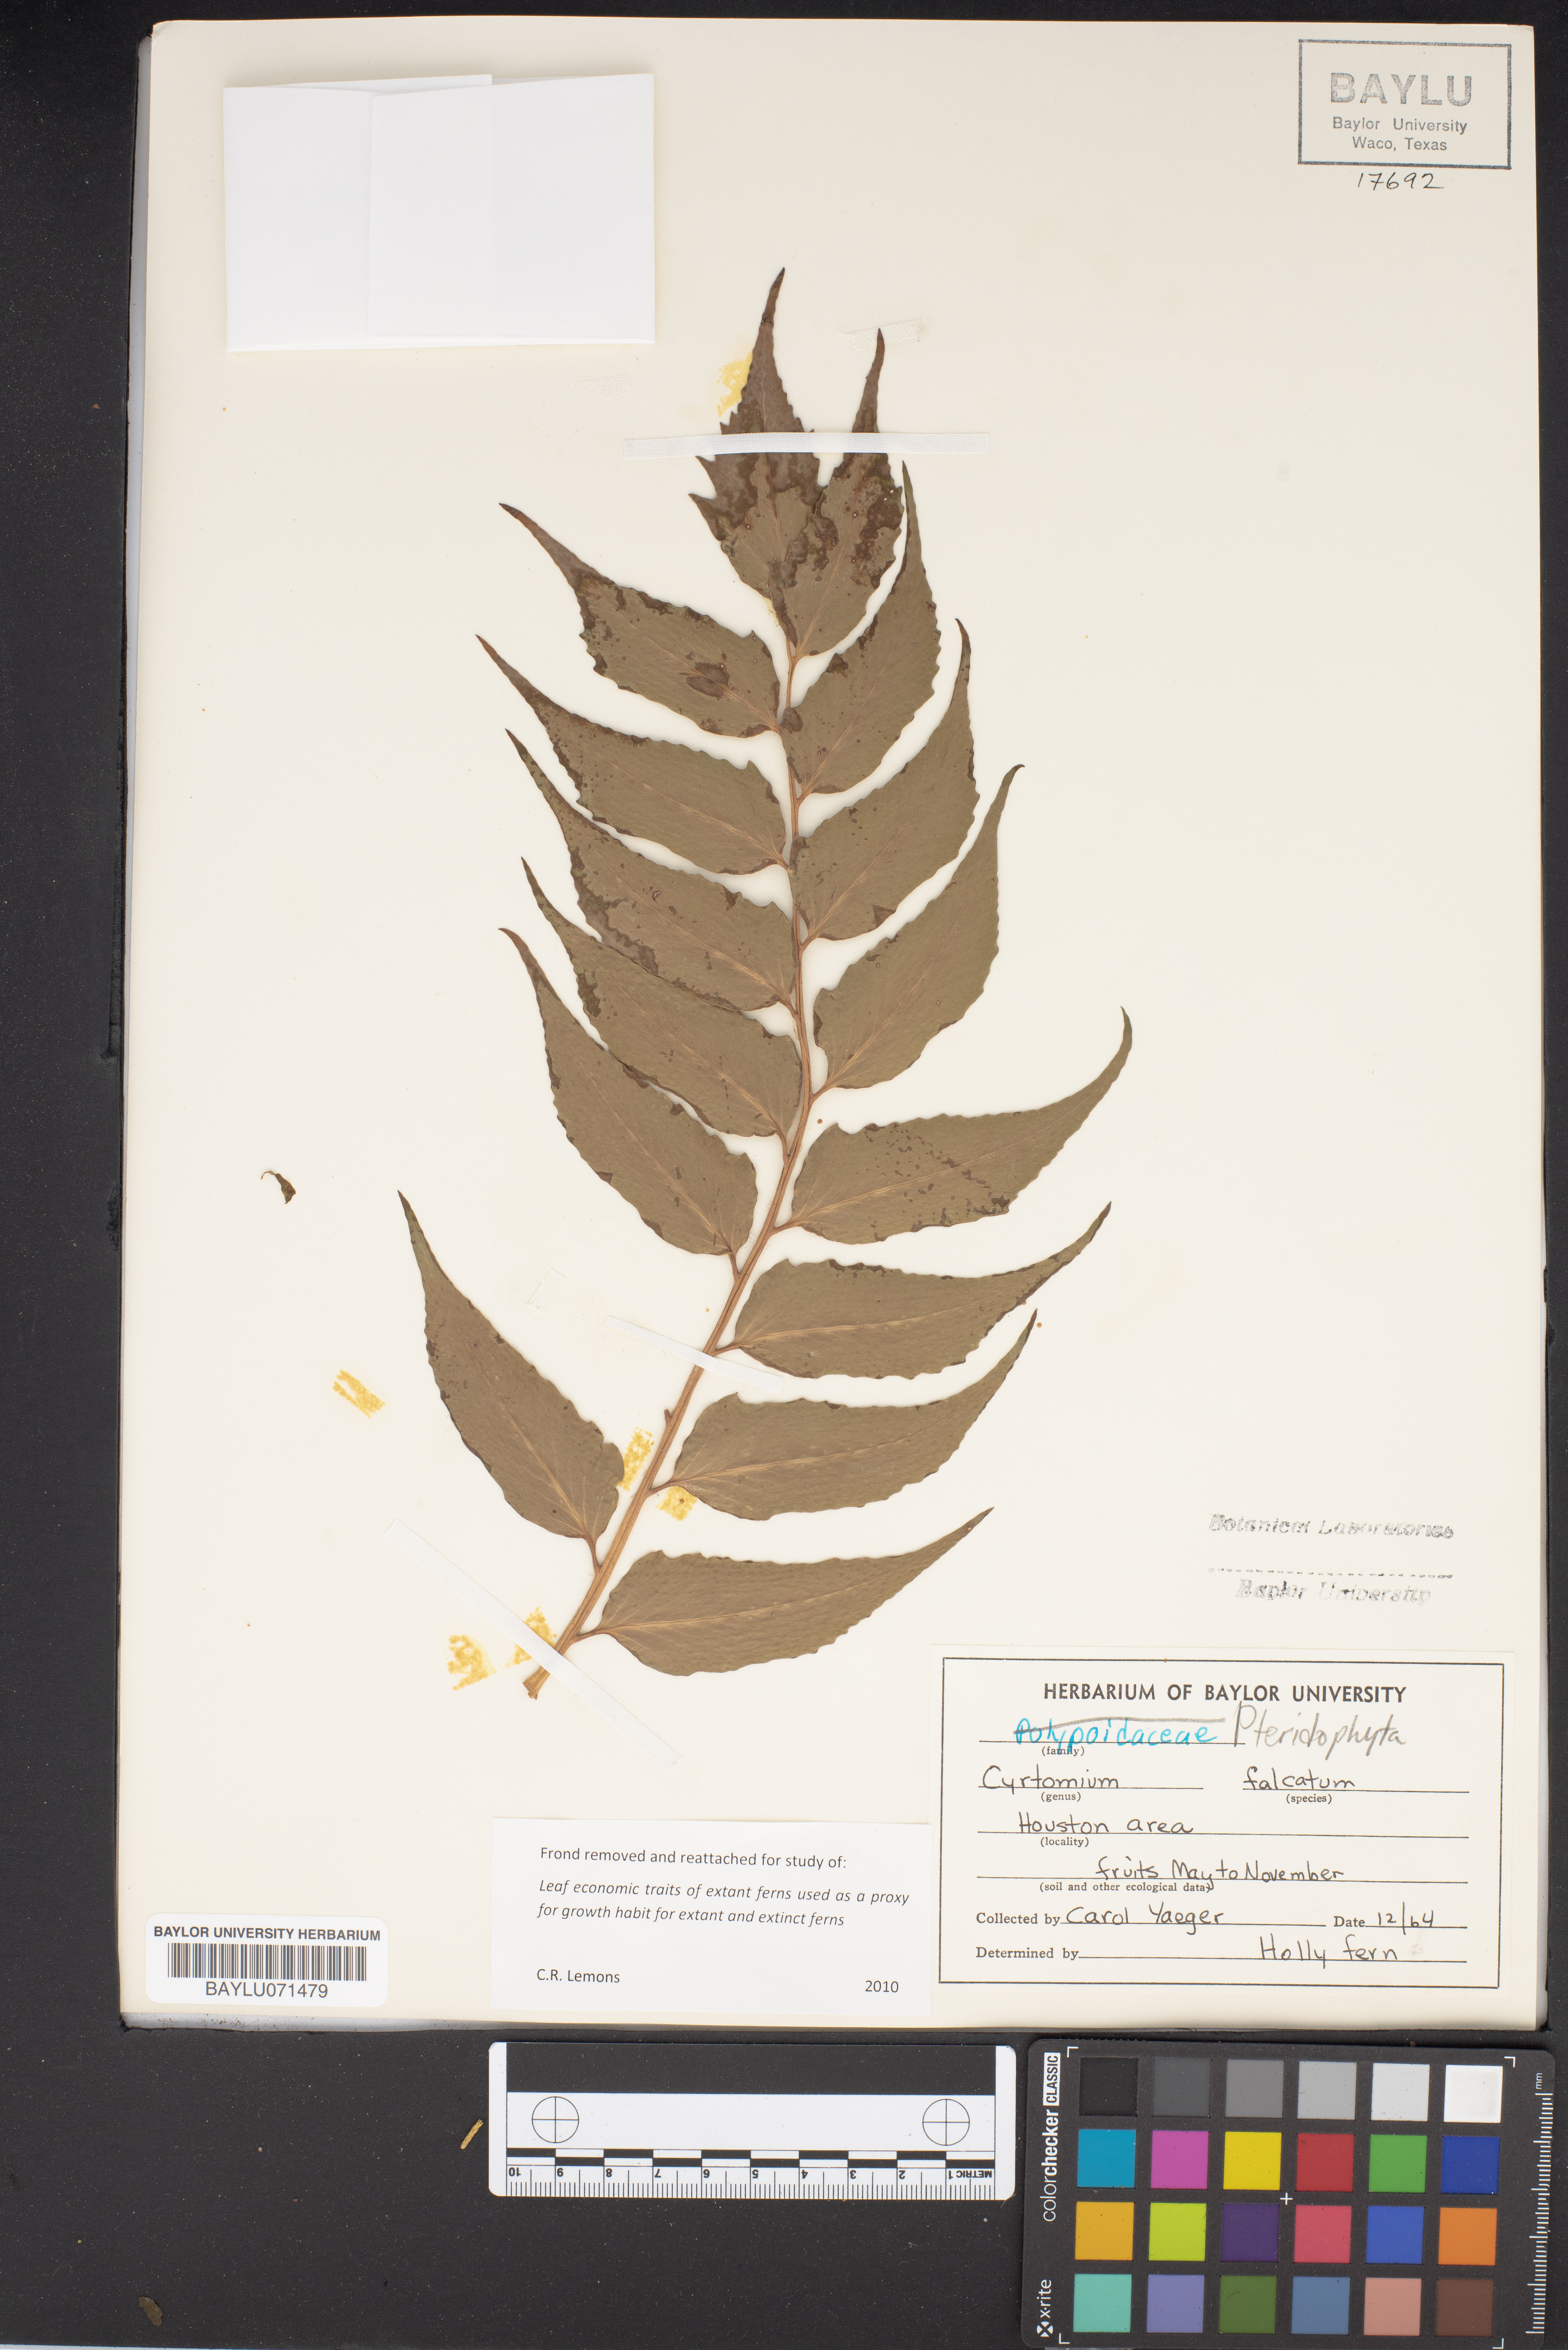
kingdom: Plantae
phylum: Tracheophyta
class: Polypodiopsida
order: Polypodiales
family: Dryopteridaceae
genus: Cyrtomium
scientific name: Cyrtomium falcatum
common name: House holly-fern
